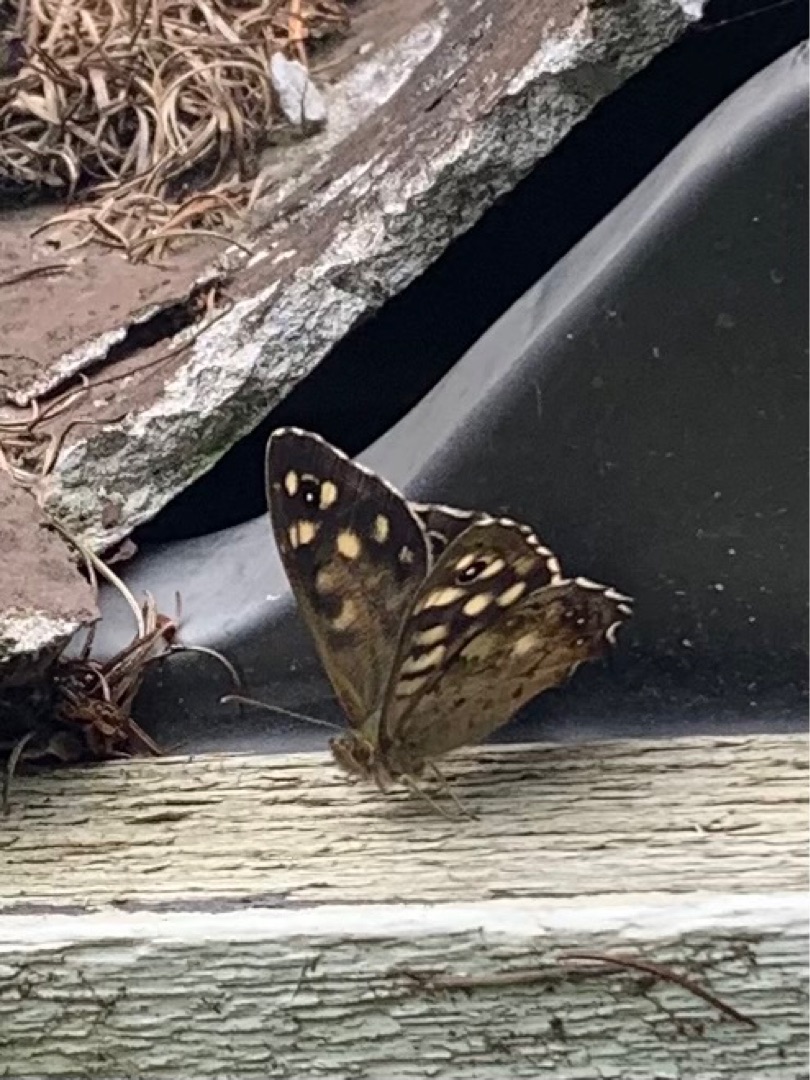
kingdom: Animalia
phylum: Arthropoda
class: Insecta
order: Lepidoptera
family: Nymphalidae
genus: Pararge
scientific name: Pararge aegeria
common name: Skovrandøje
